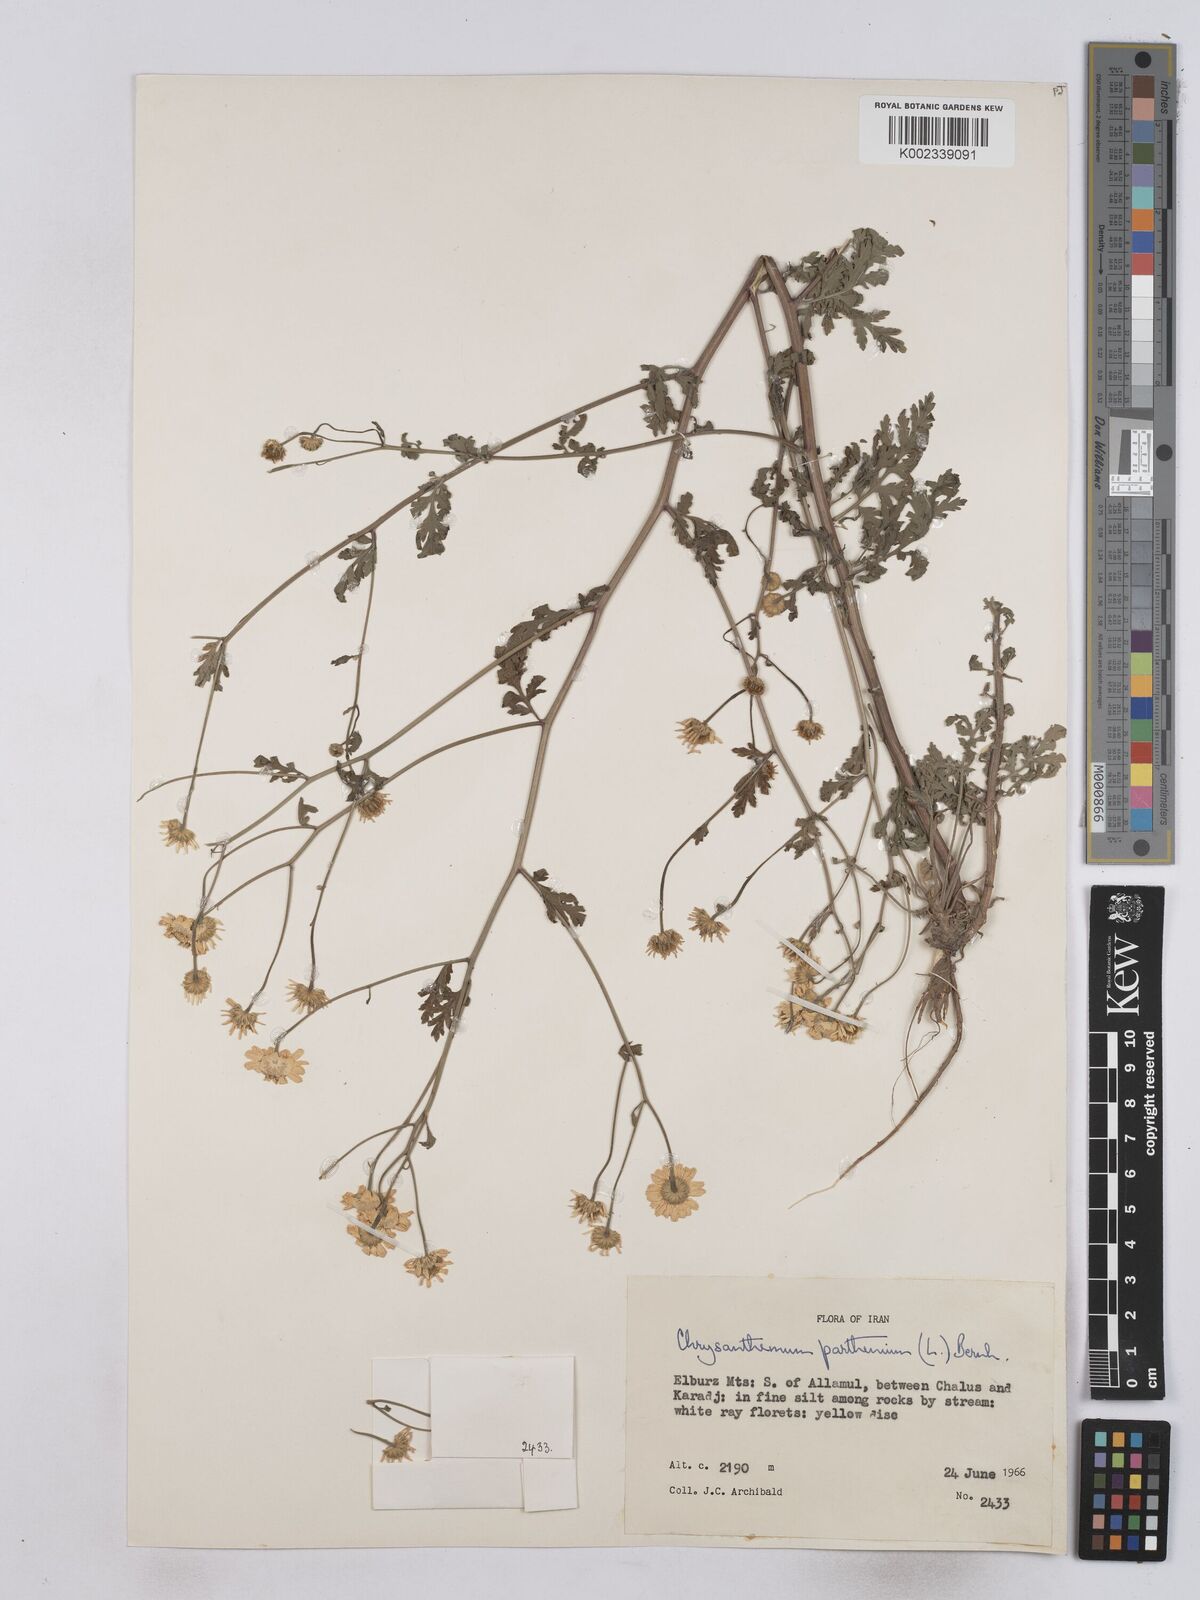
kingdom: Plantae
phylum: Tracheophyta
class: Magnoliopsida
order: Asterales
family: Asteraceae
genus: Tanacetum
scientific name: Tanacetum parthenium
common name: Feverfew
